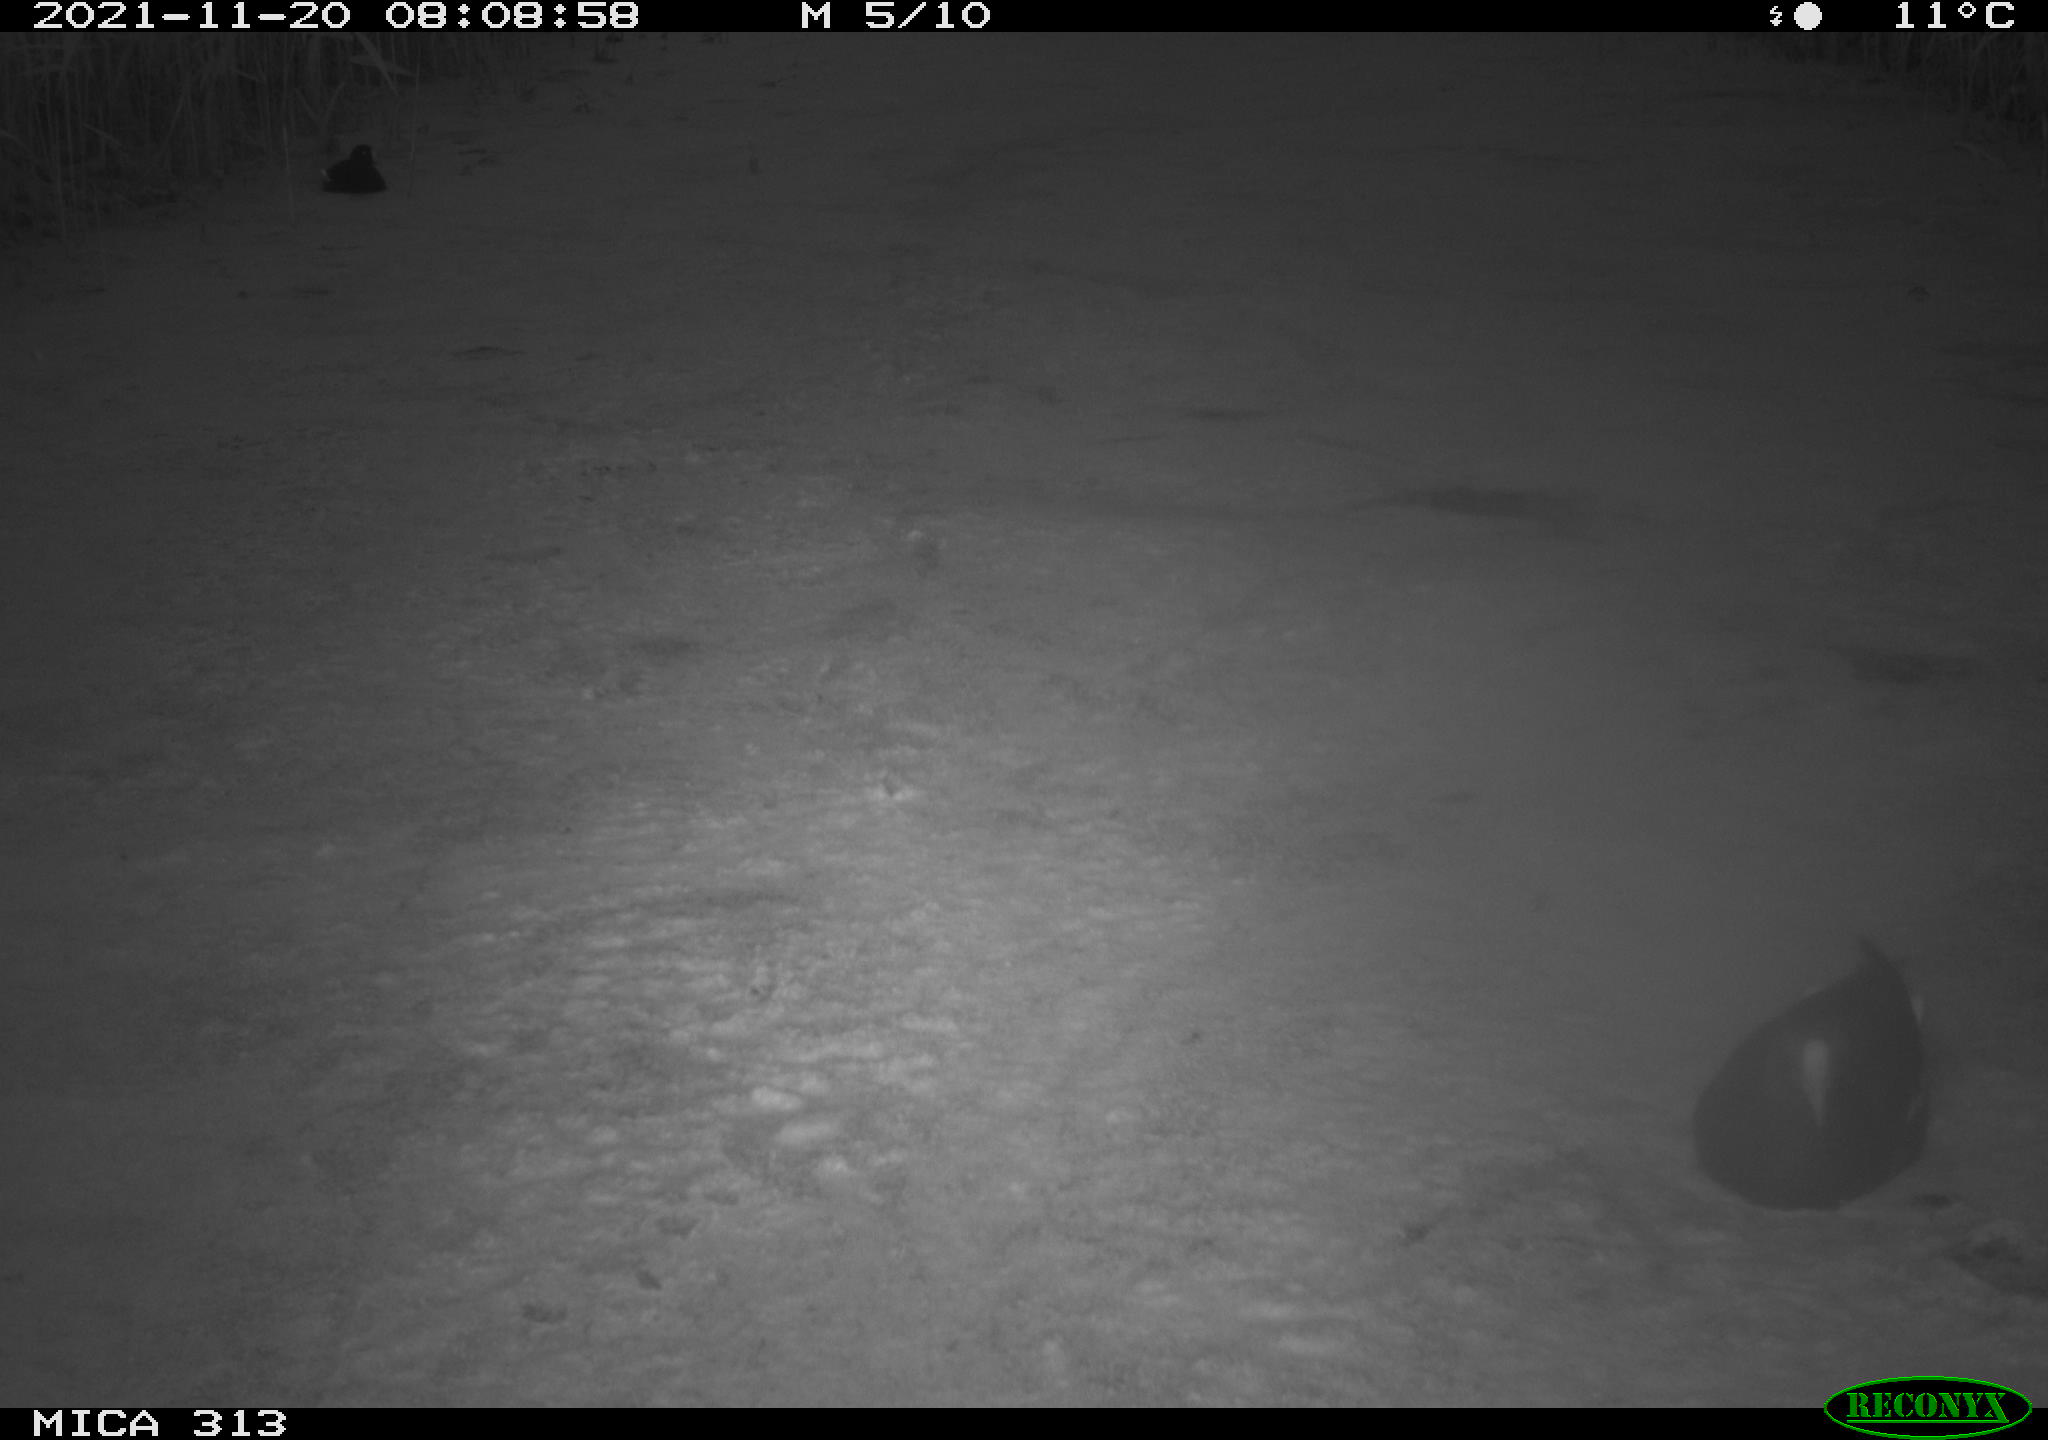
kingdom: Animalia
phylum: Chordata
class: Aves
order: Gruiformes
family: Rallidae
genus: Fulica
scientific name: Fulica atra
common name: Eurasian coot
